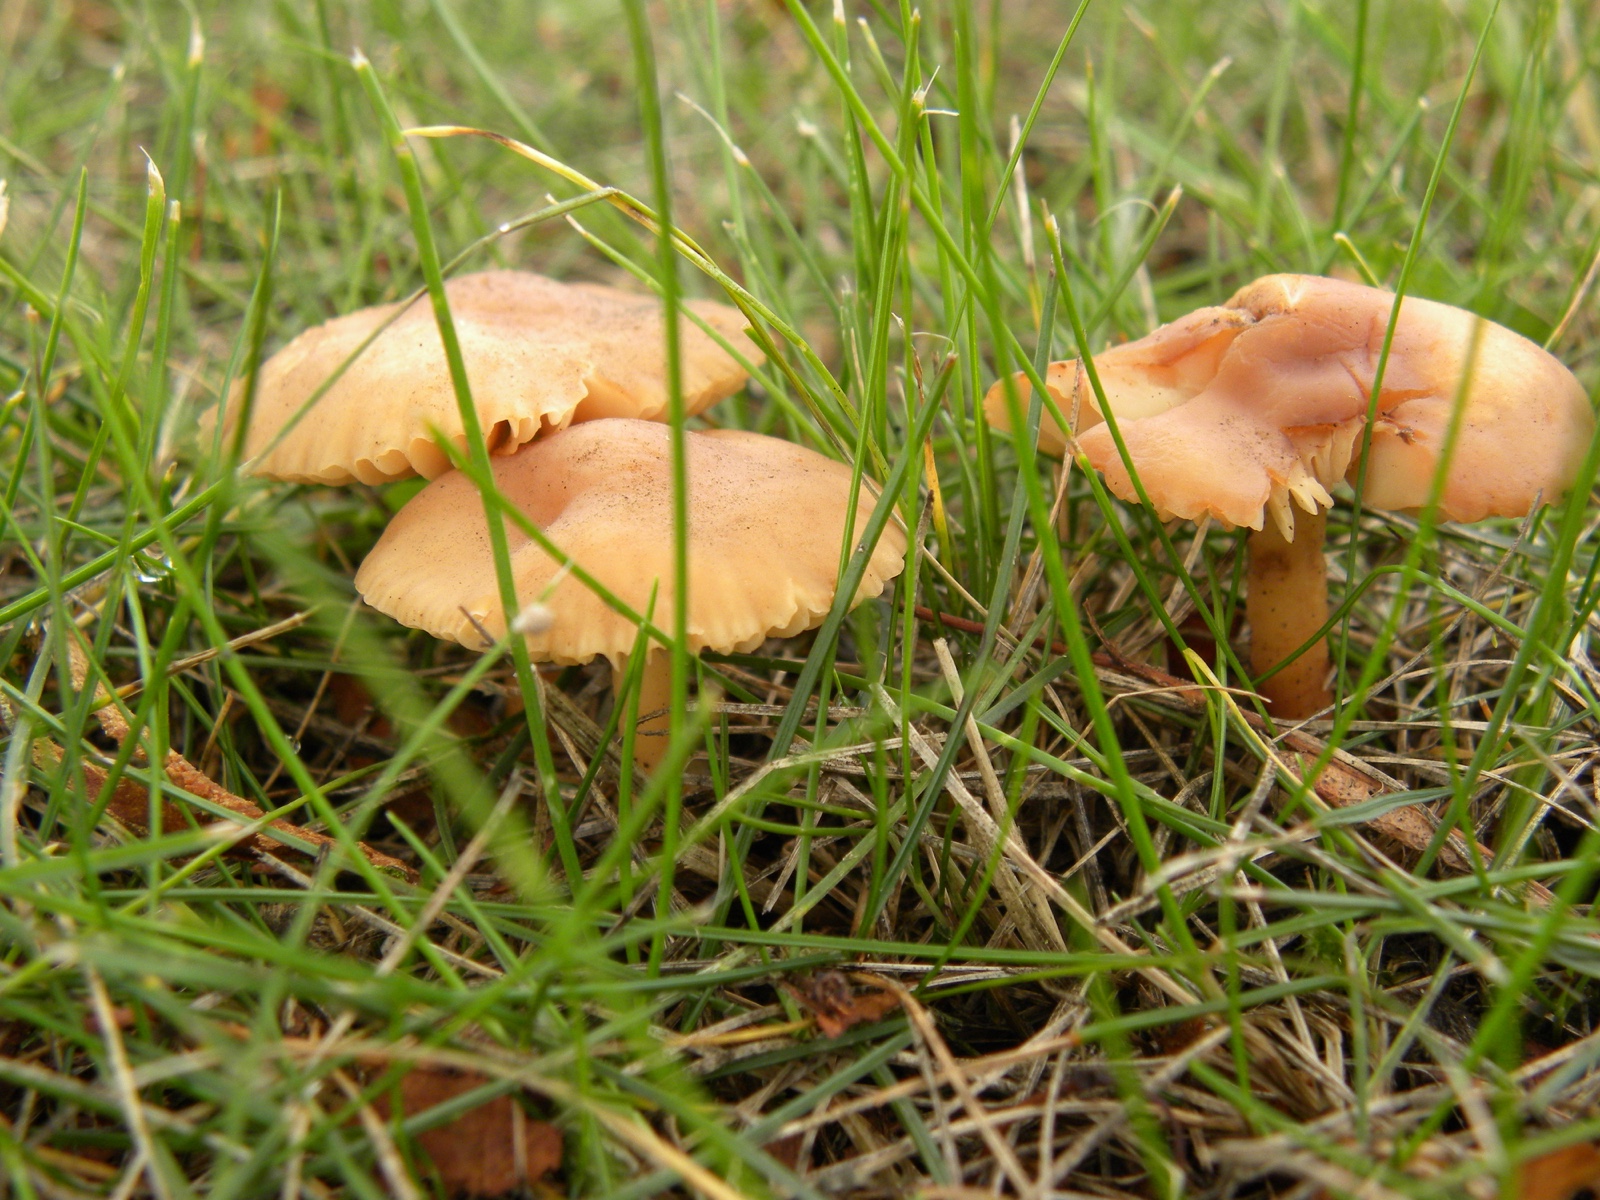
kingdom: Fungi
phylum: Basidiomycota
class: Agaricomycetes
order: Agaricales
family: Marasmiaceae
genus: Marasmius
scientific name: Marasmius oreades
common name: elledans-bruskhat
